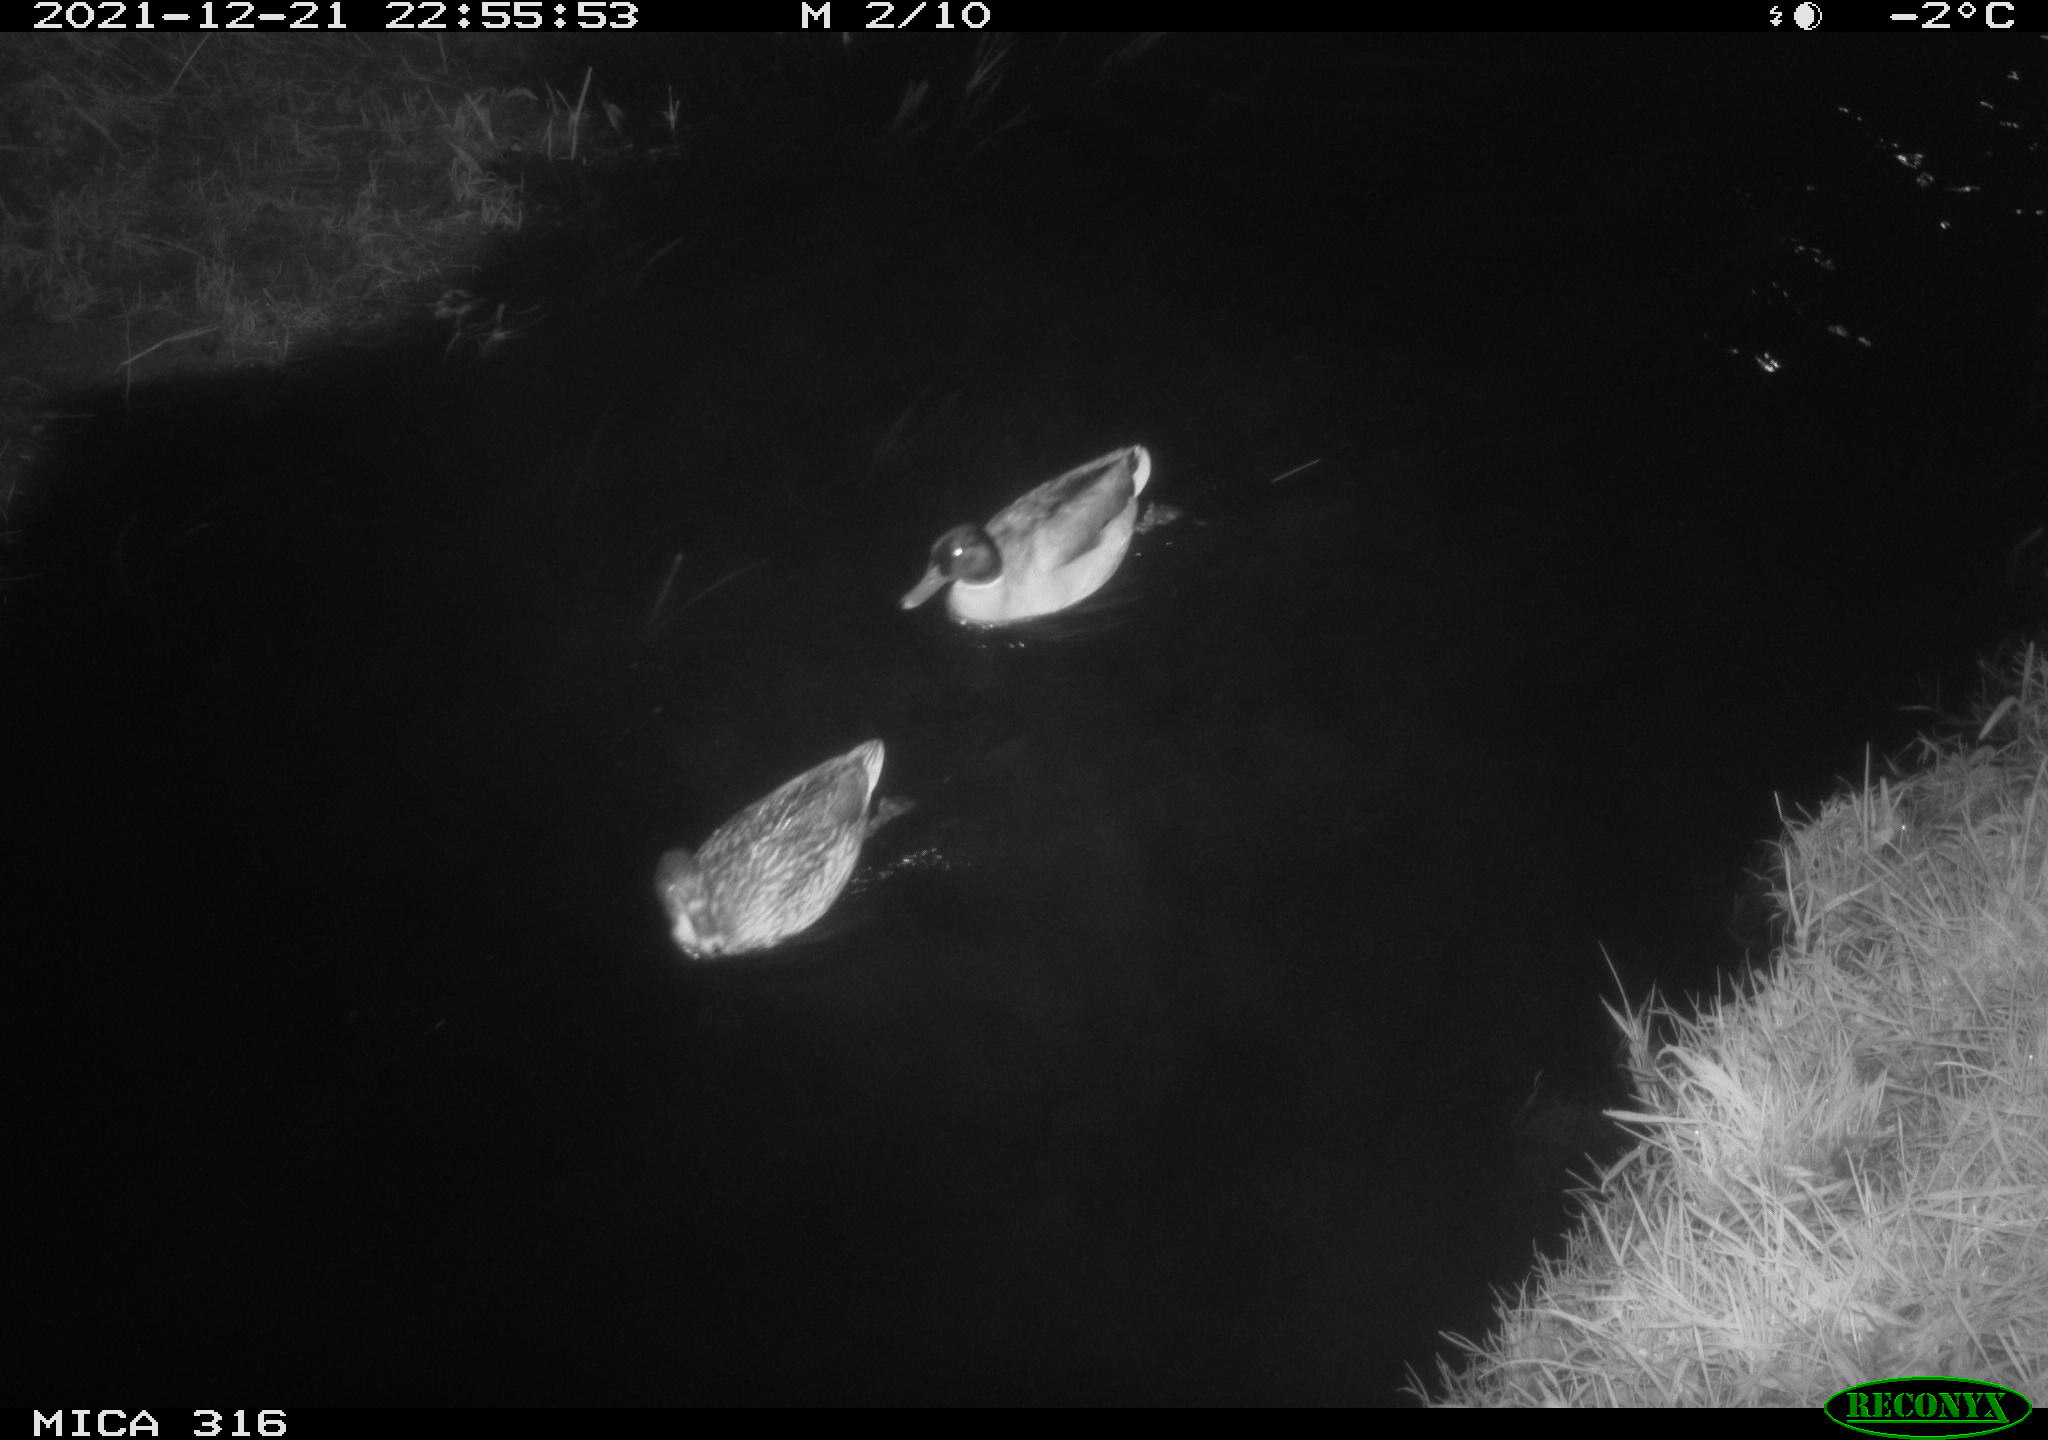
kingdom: Animalia
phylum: Chordata
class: Aves
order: Anseriformes
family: Anatidae
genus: Anas
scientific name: Anas
